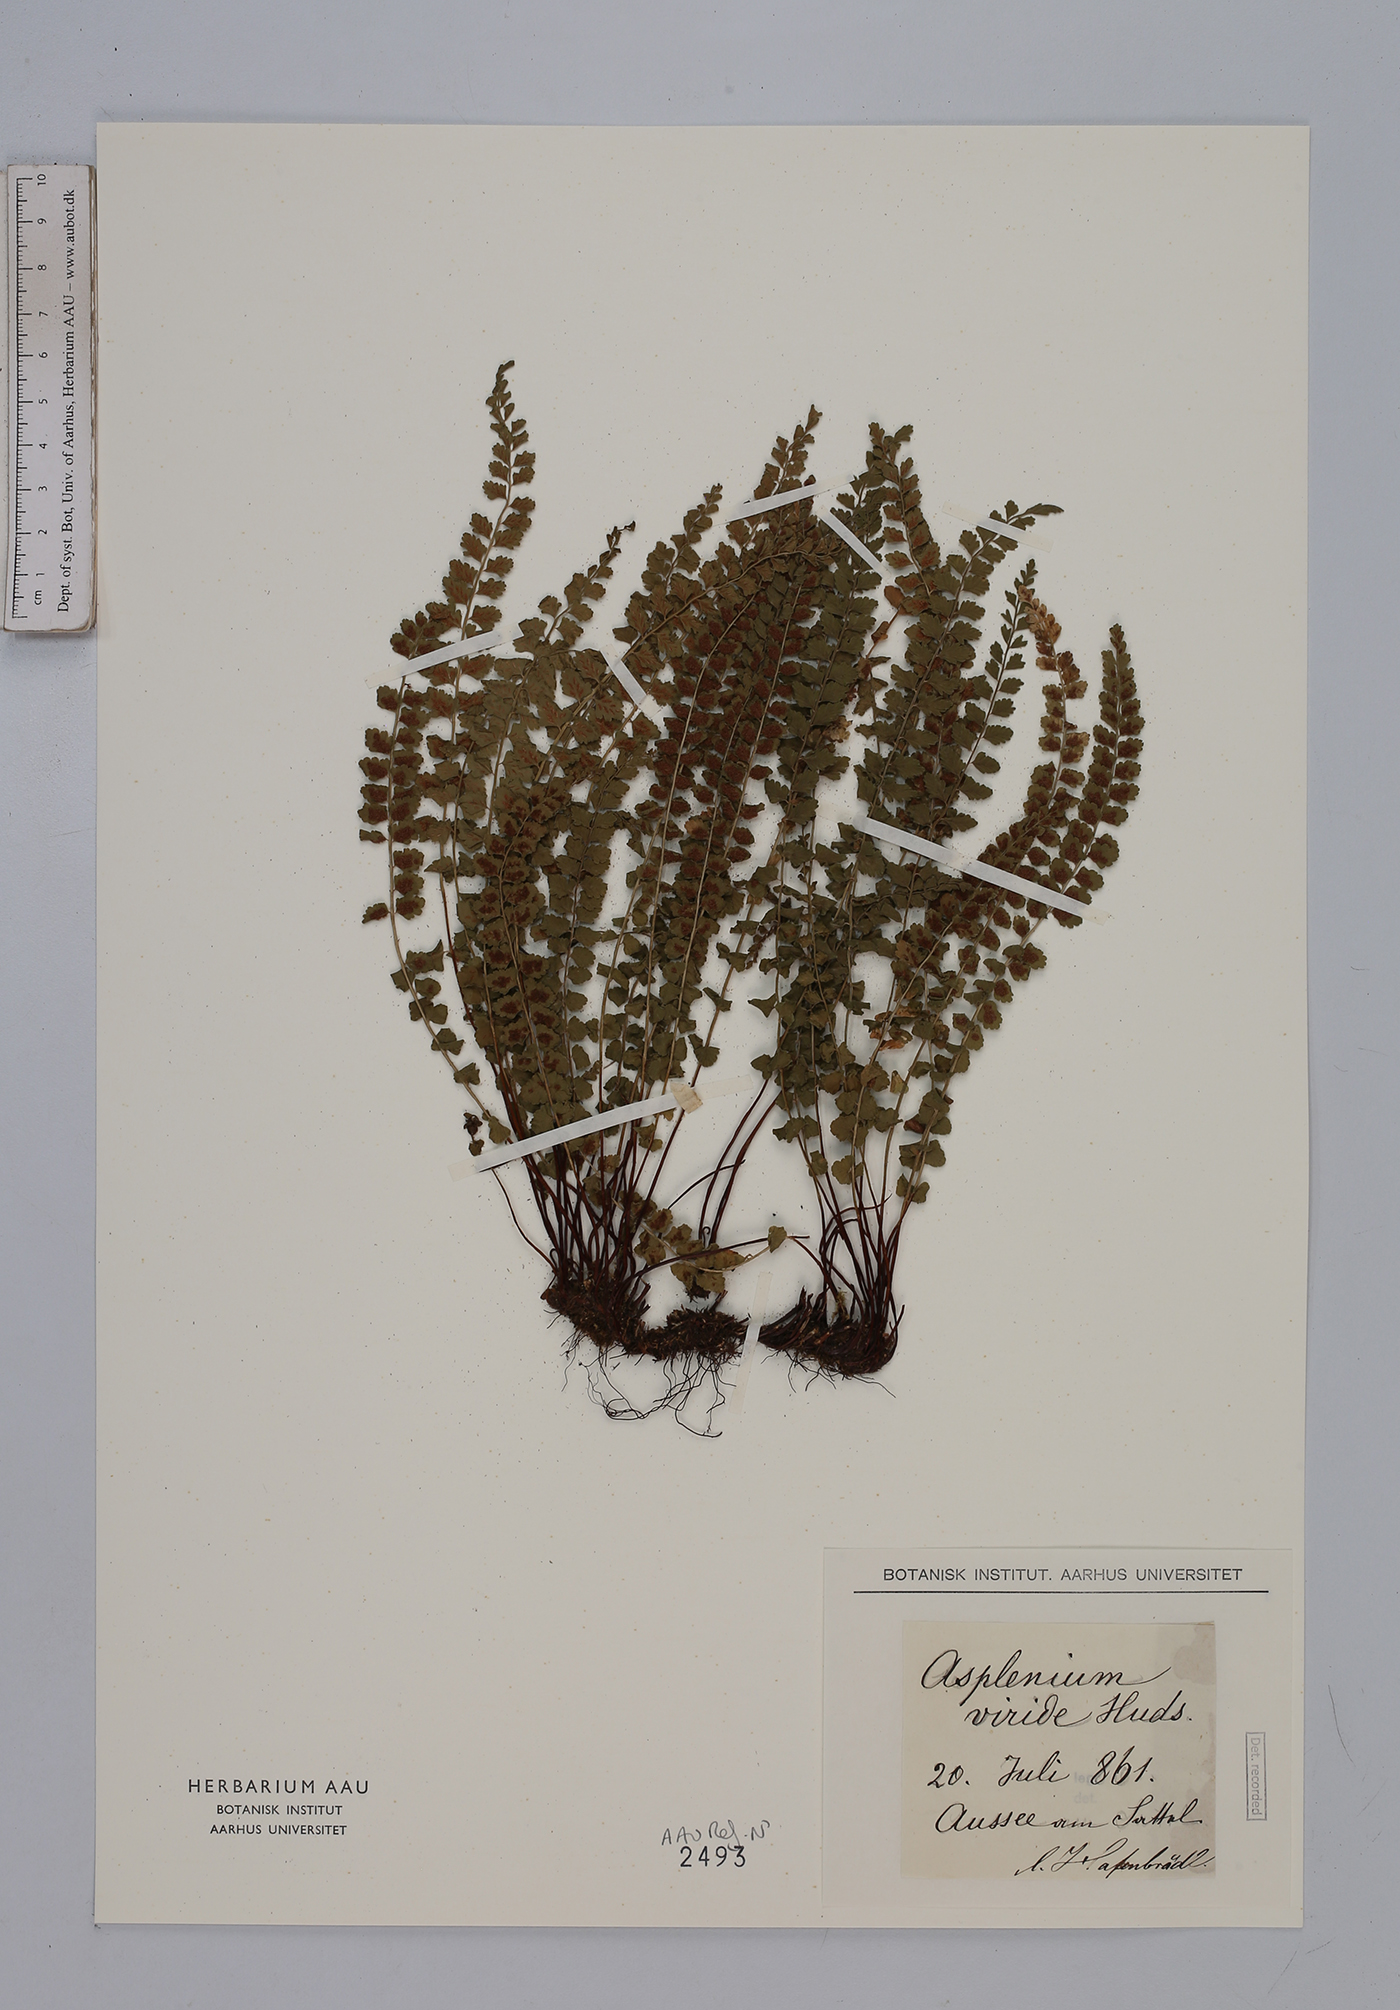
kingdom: Plantae
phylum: Tracheophyta
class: Polypodiopsida
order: Polypodiales
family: Aspleniaceae
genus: Asplenium
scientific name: Asplenium viride
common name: Green spleenwort
